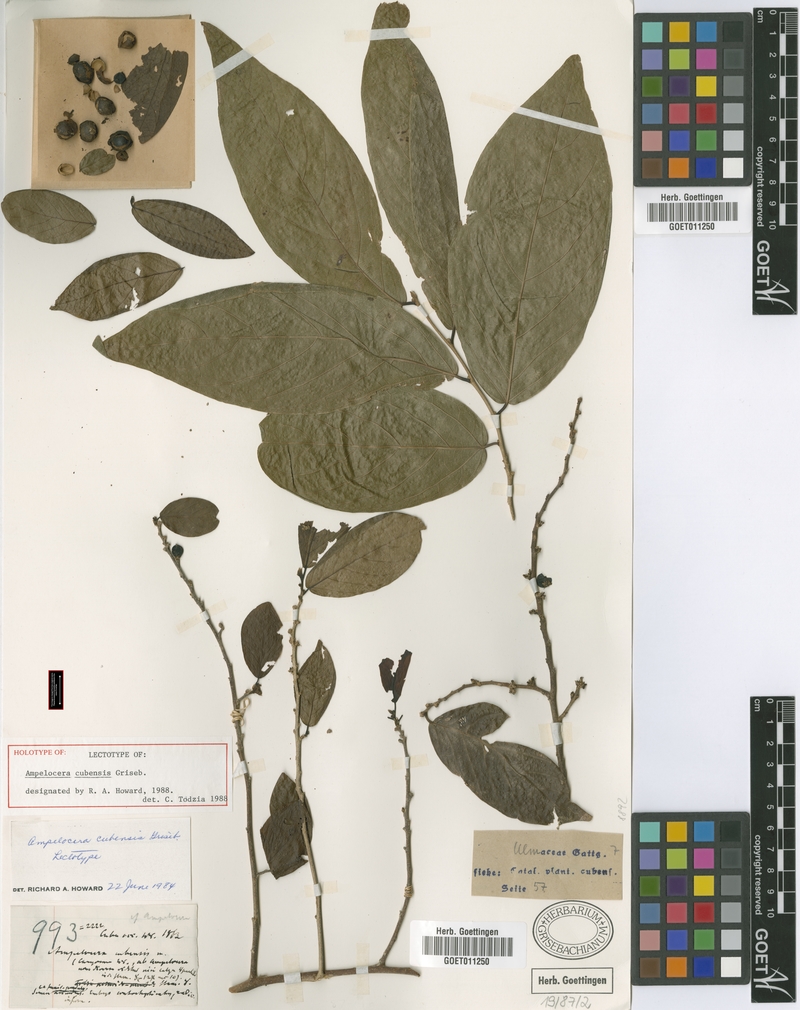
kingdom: Plantae
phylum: Tracheophyta
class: Magnoliopsida
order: Rosales
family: Cannabaceae
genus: Ampelocera
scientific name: Ampelocera cubensis
